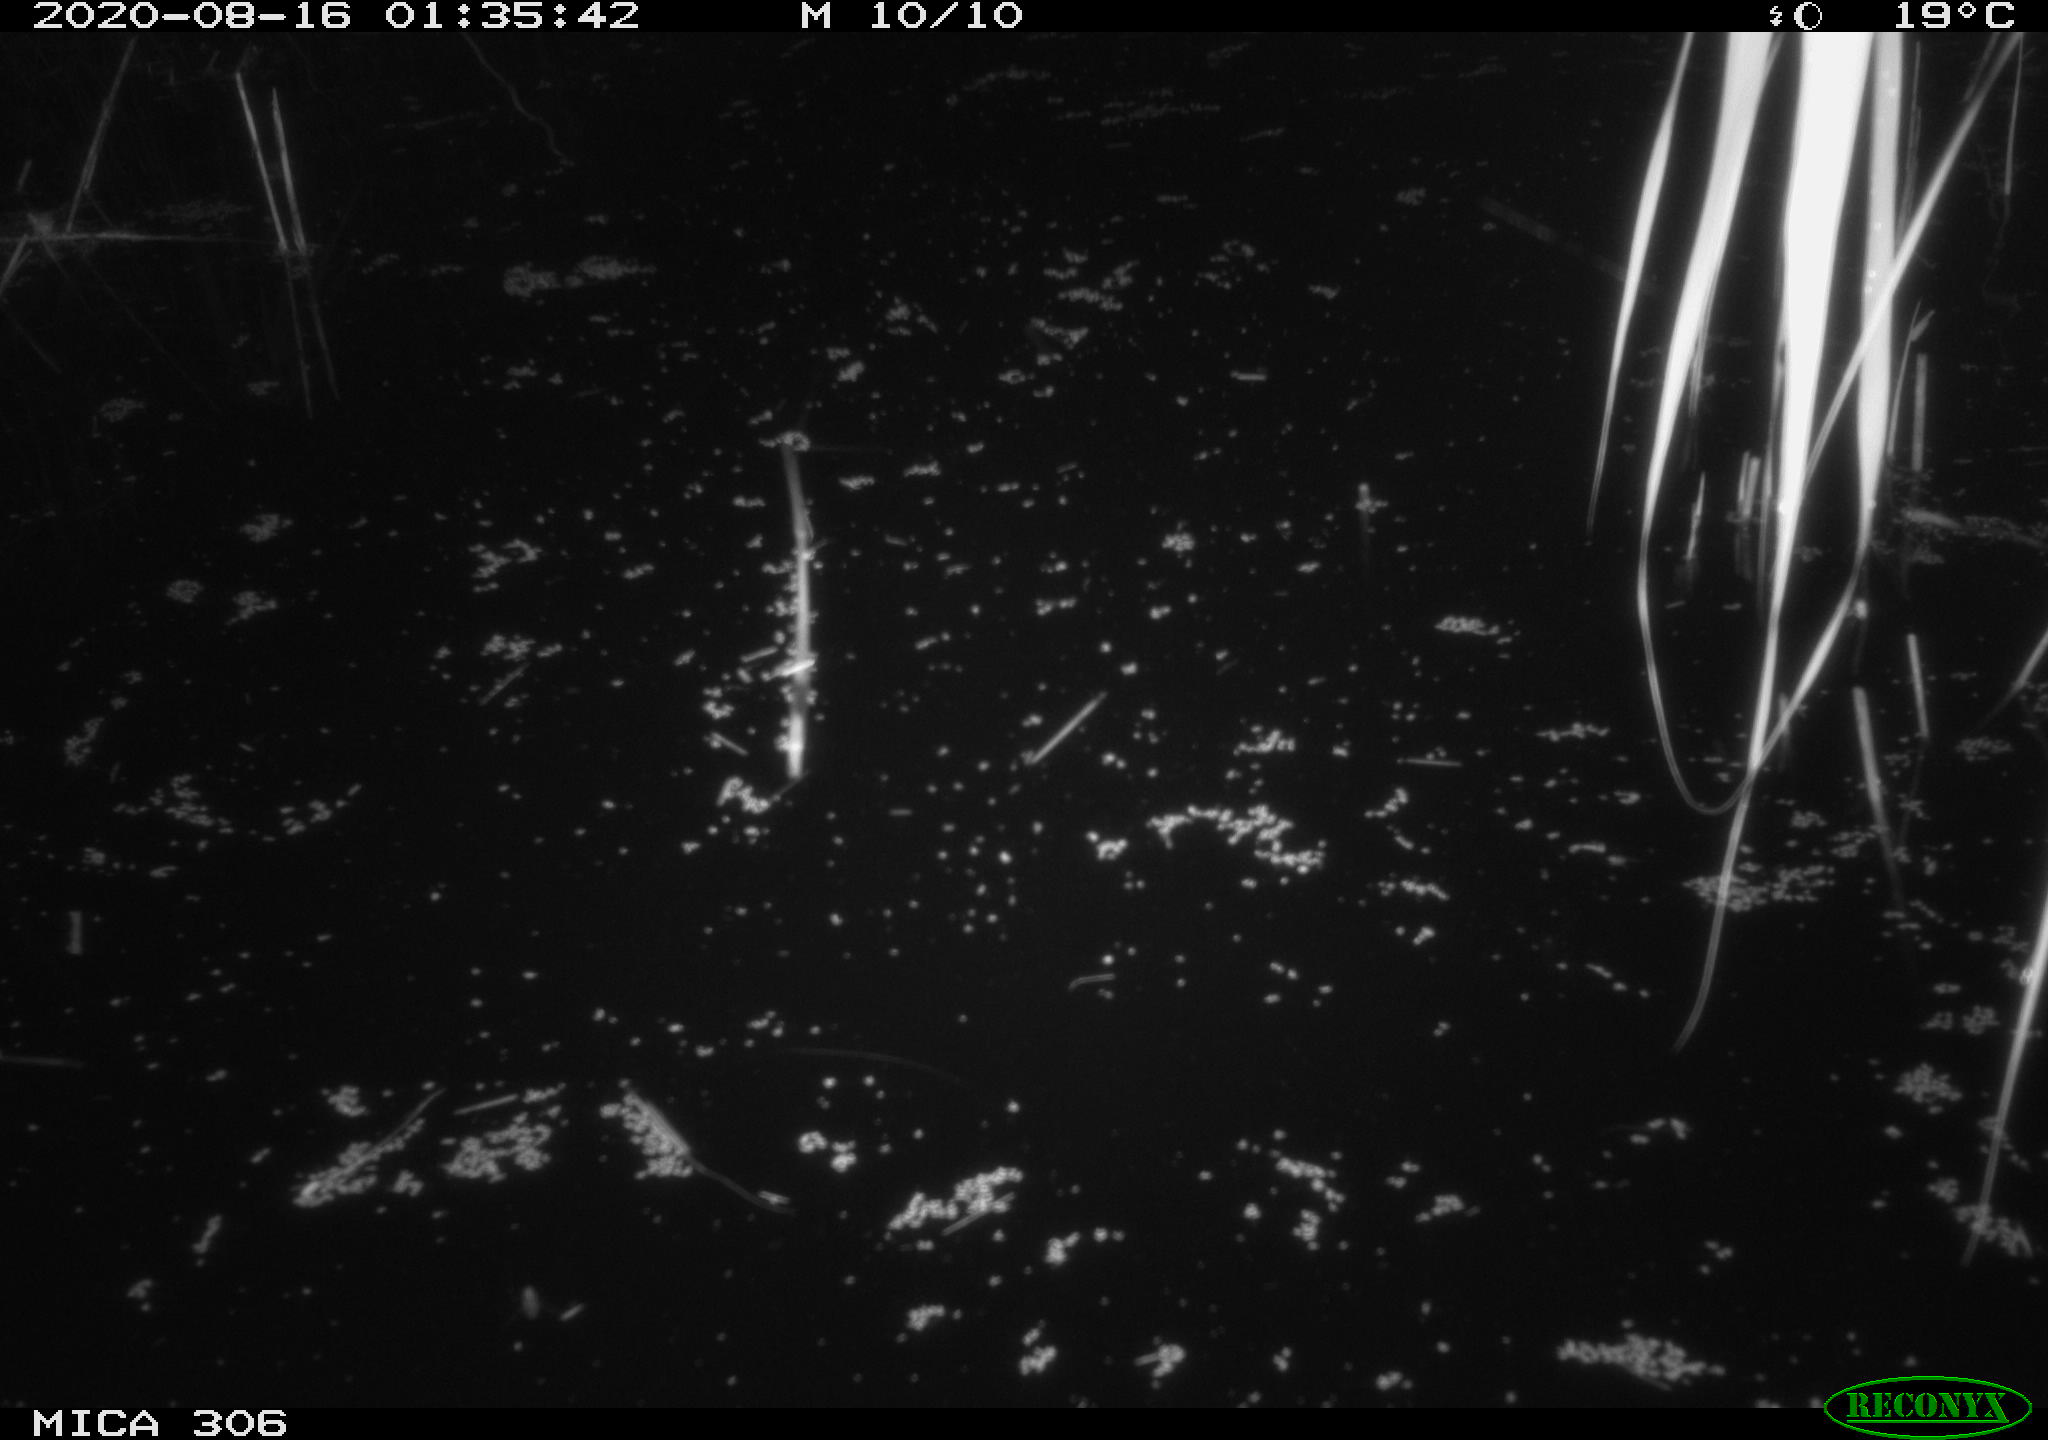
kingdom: Animalia
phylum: Chordata
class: Mammalia
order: Rodentia
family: Muridae
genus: Rattus
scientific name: Rattus norvegicus
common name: Brown rat
